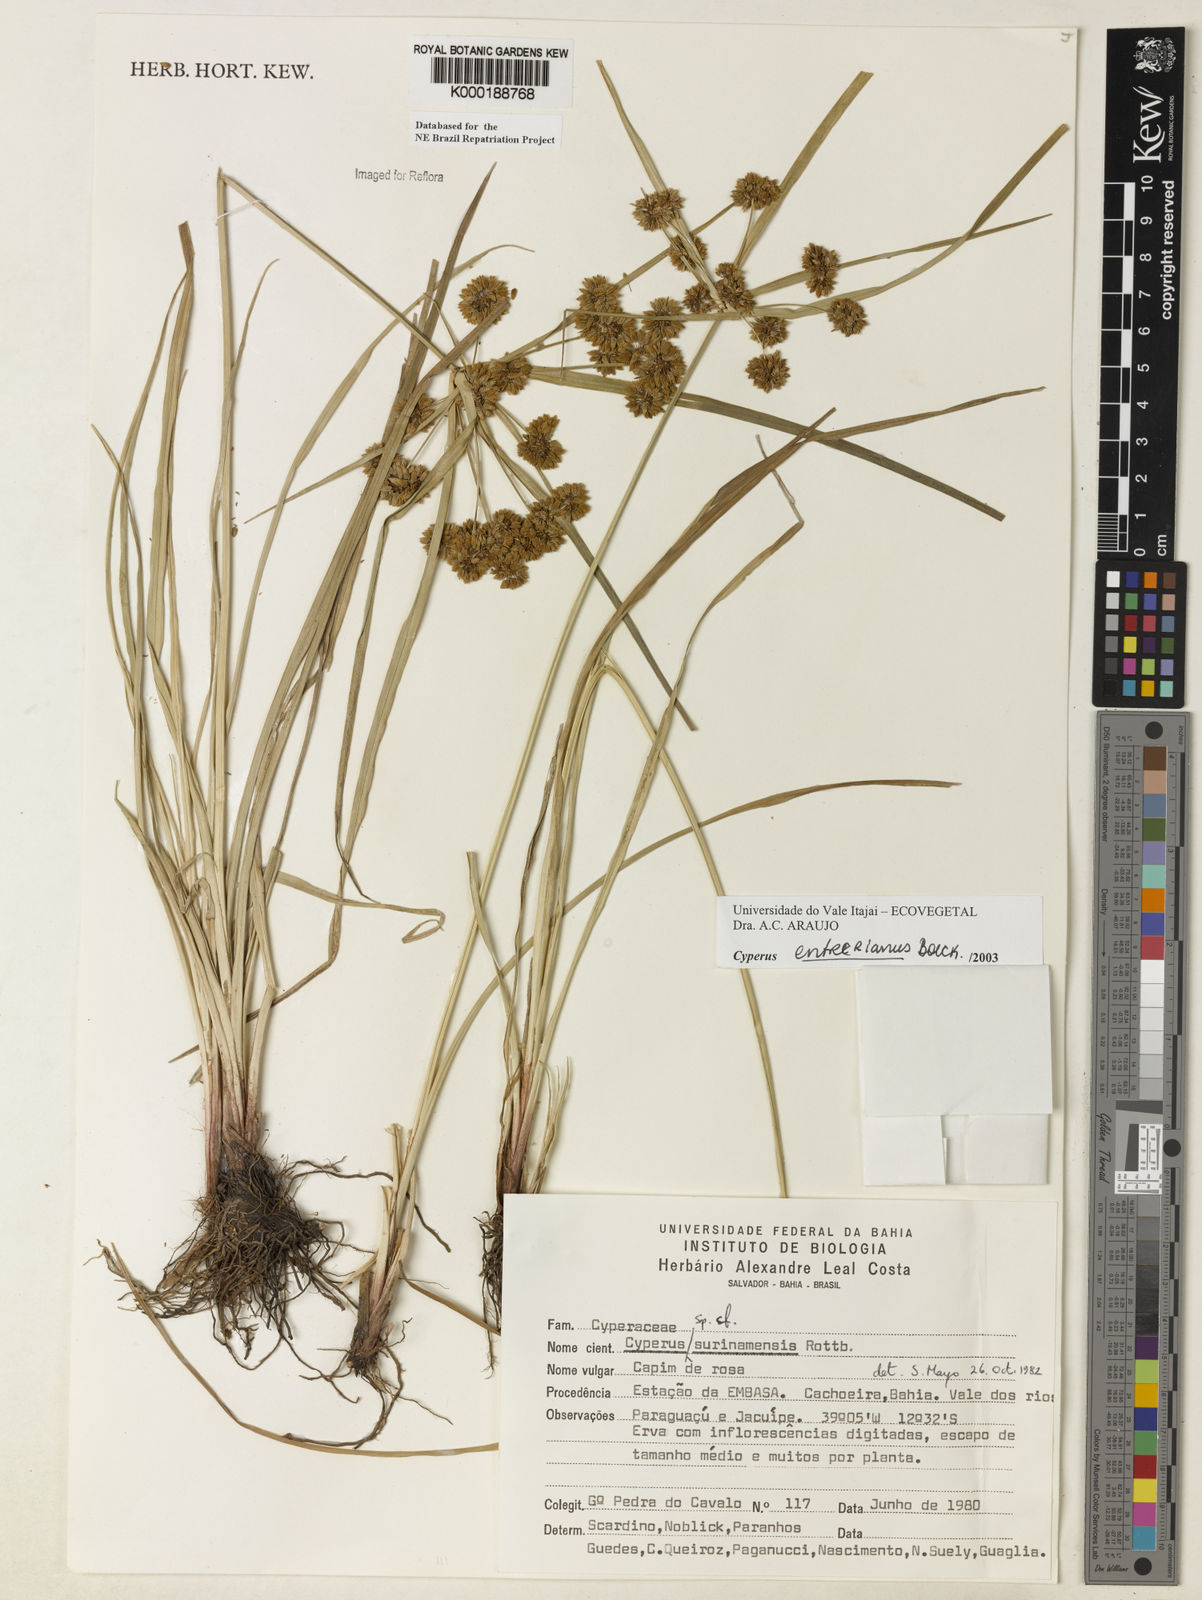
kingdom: Plantae
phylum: Tracheophyta
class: Liliopsida
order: Poales
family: Cyperaceae
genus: Cyperus
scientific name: Cyperus entrerianus
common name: Woodrush flatsedge
